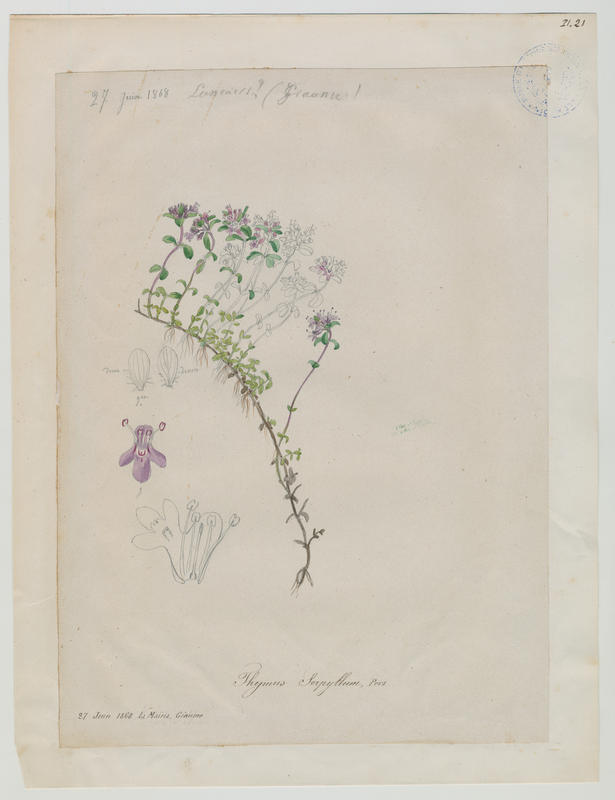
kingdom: Plantae
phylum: Tracheophyta
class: Magnoliopsida
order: Lamiales
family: Lamiaceae
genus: Thymus
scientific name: Thymus
